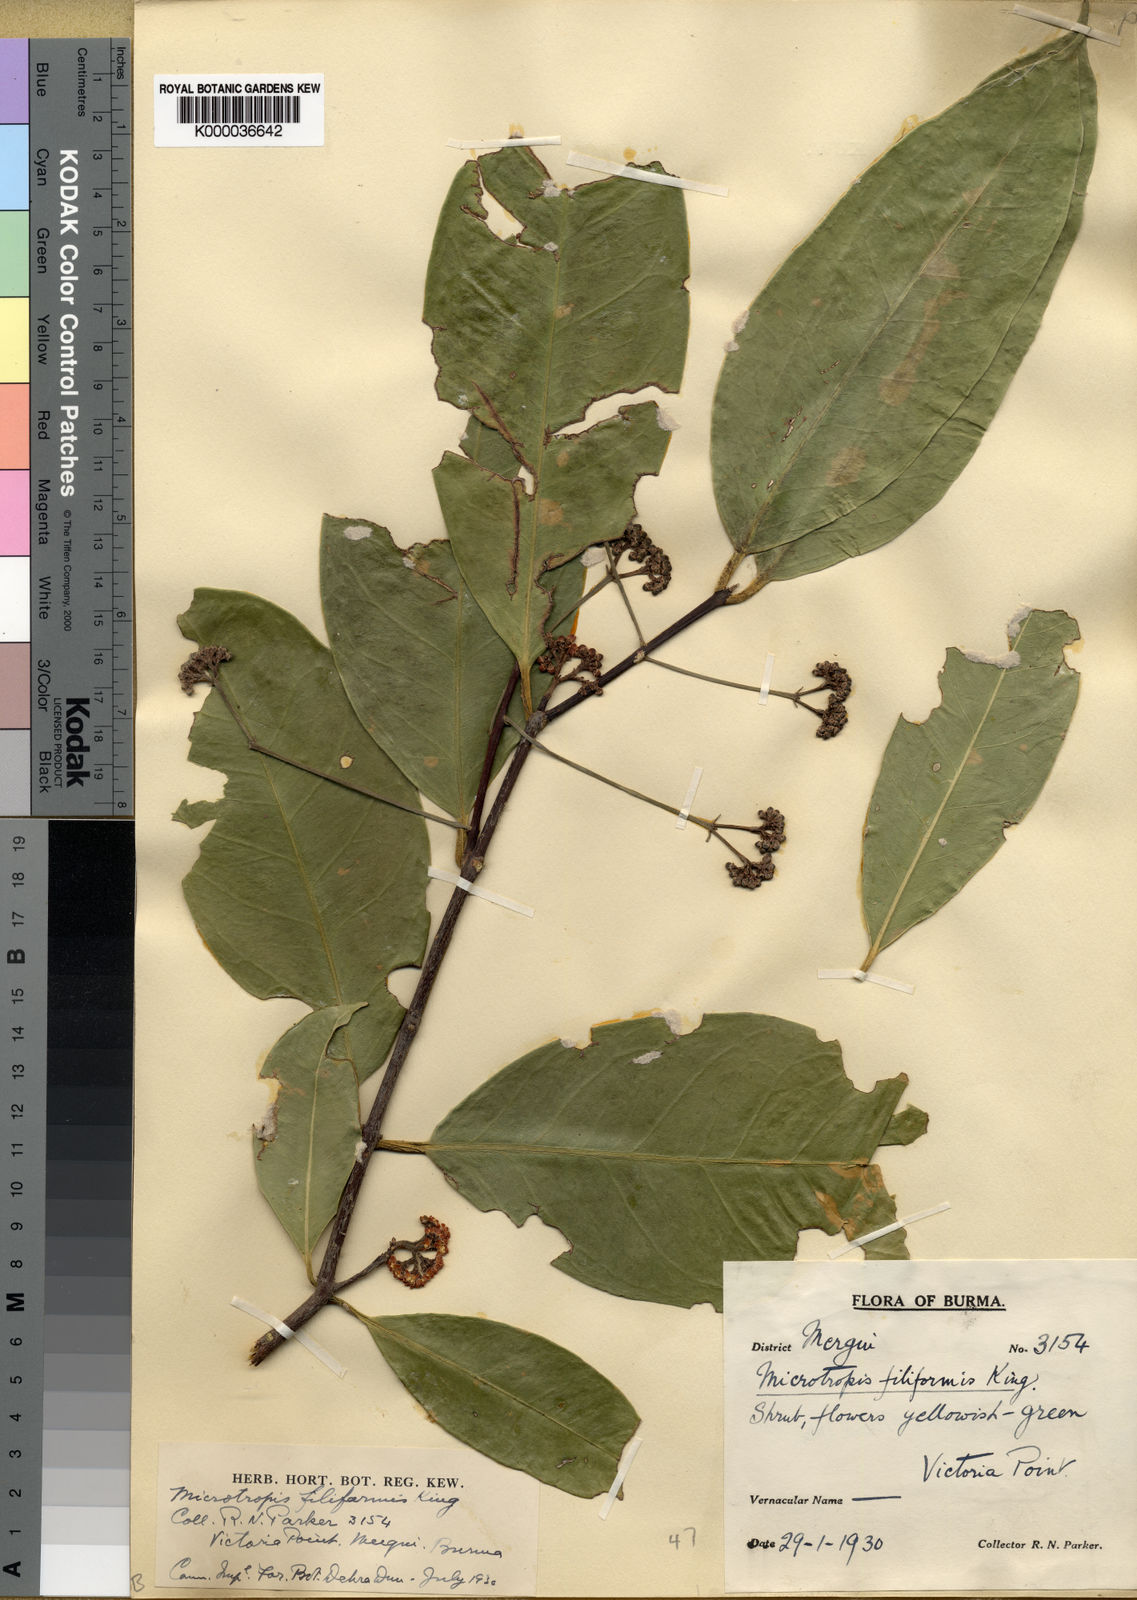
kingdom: Plantae
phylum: Tracheophyta
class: Magnoliopsida
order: Celastrales
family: Celastraceae
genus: Microtropis
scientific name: Microtropis bivalvis
